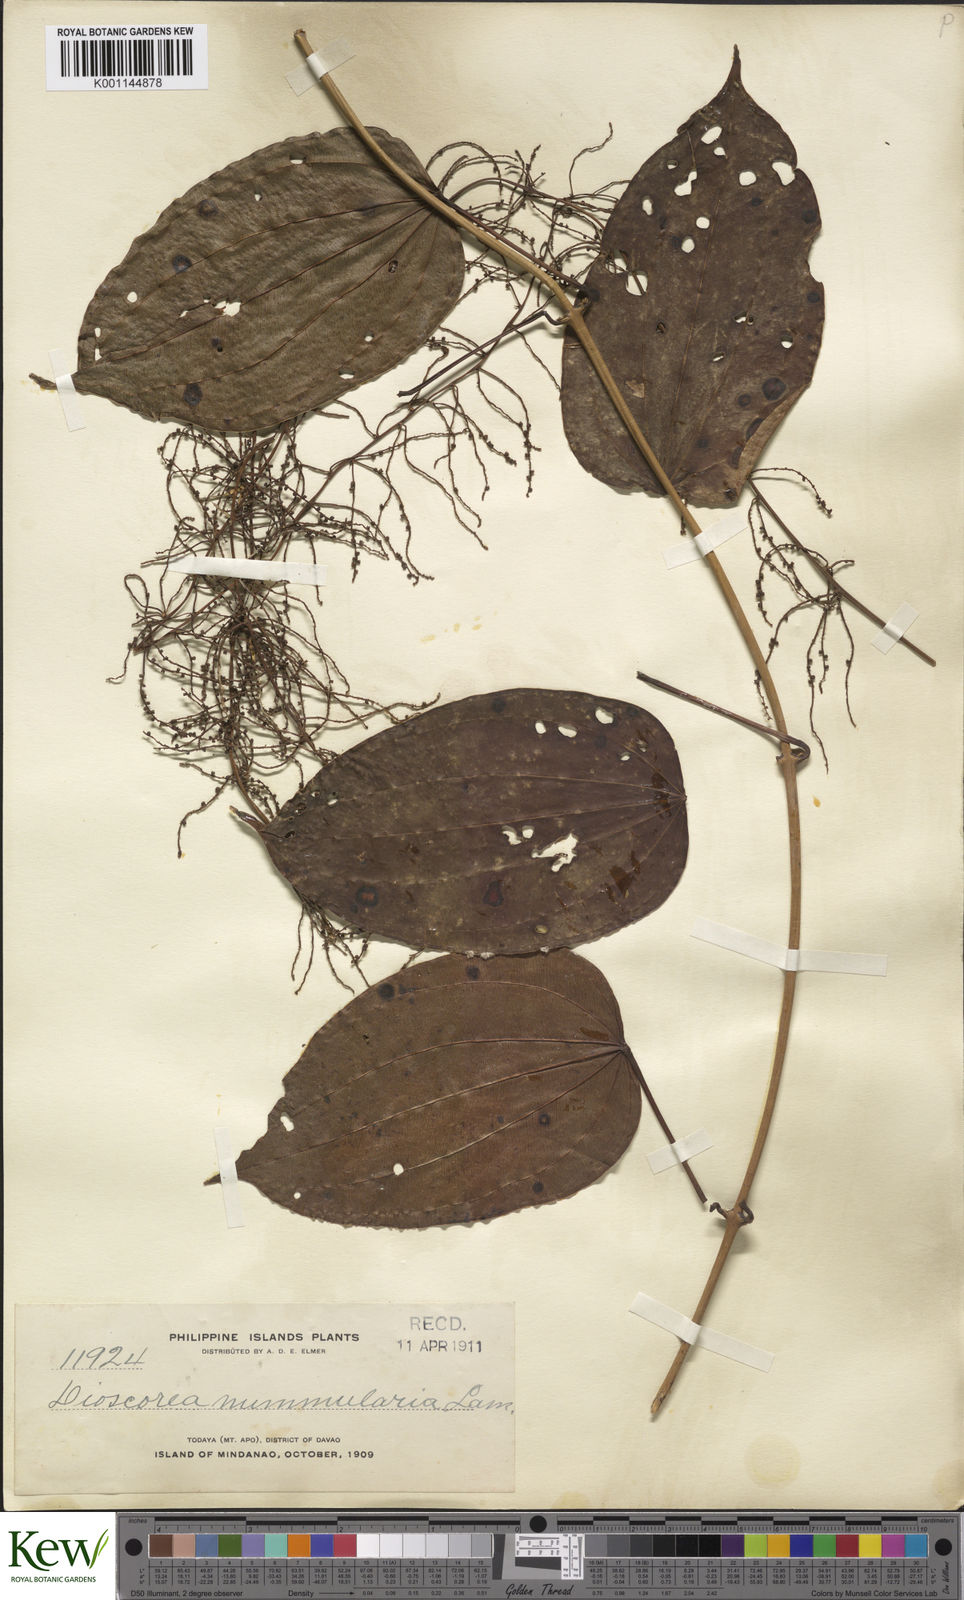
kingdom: Plantae
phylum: Tracheophyta
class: Liliopsida
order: Dioscoreales
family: Dioscoreaceae
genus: Dioscorea
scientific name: Dioscorea nummularia
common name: Pacific yam
